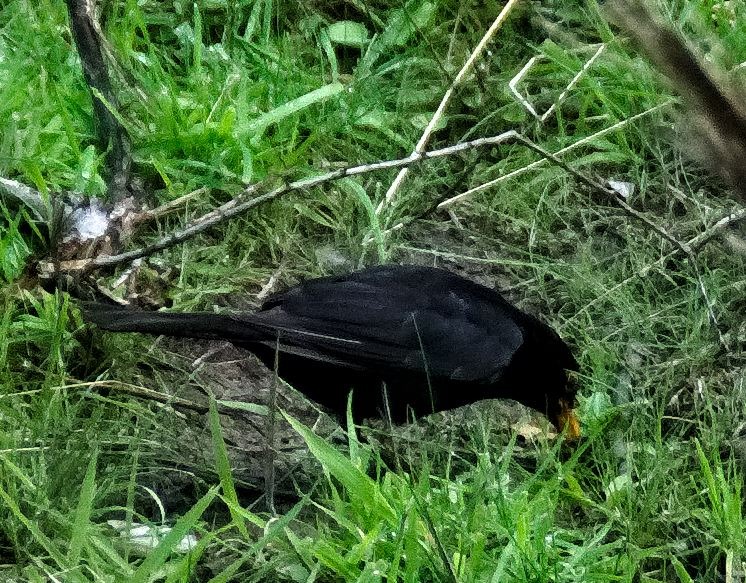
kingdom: Animalia
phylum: Chordata
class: Aves
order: Passeriformes
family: Turdidae
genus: Turdus
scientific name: Turdus merula
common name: Solsort
